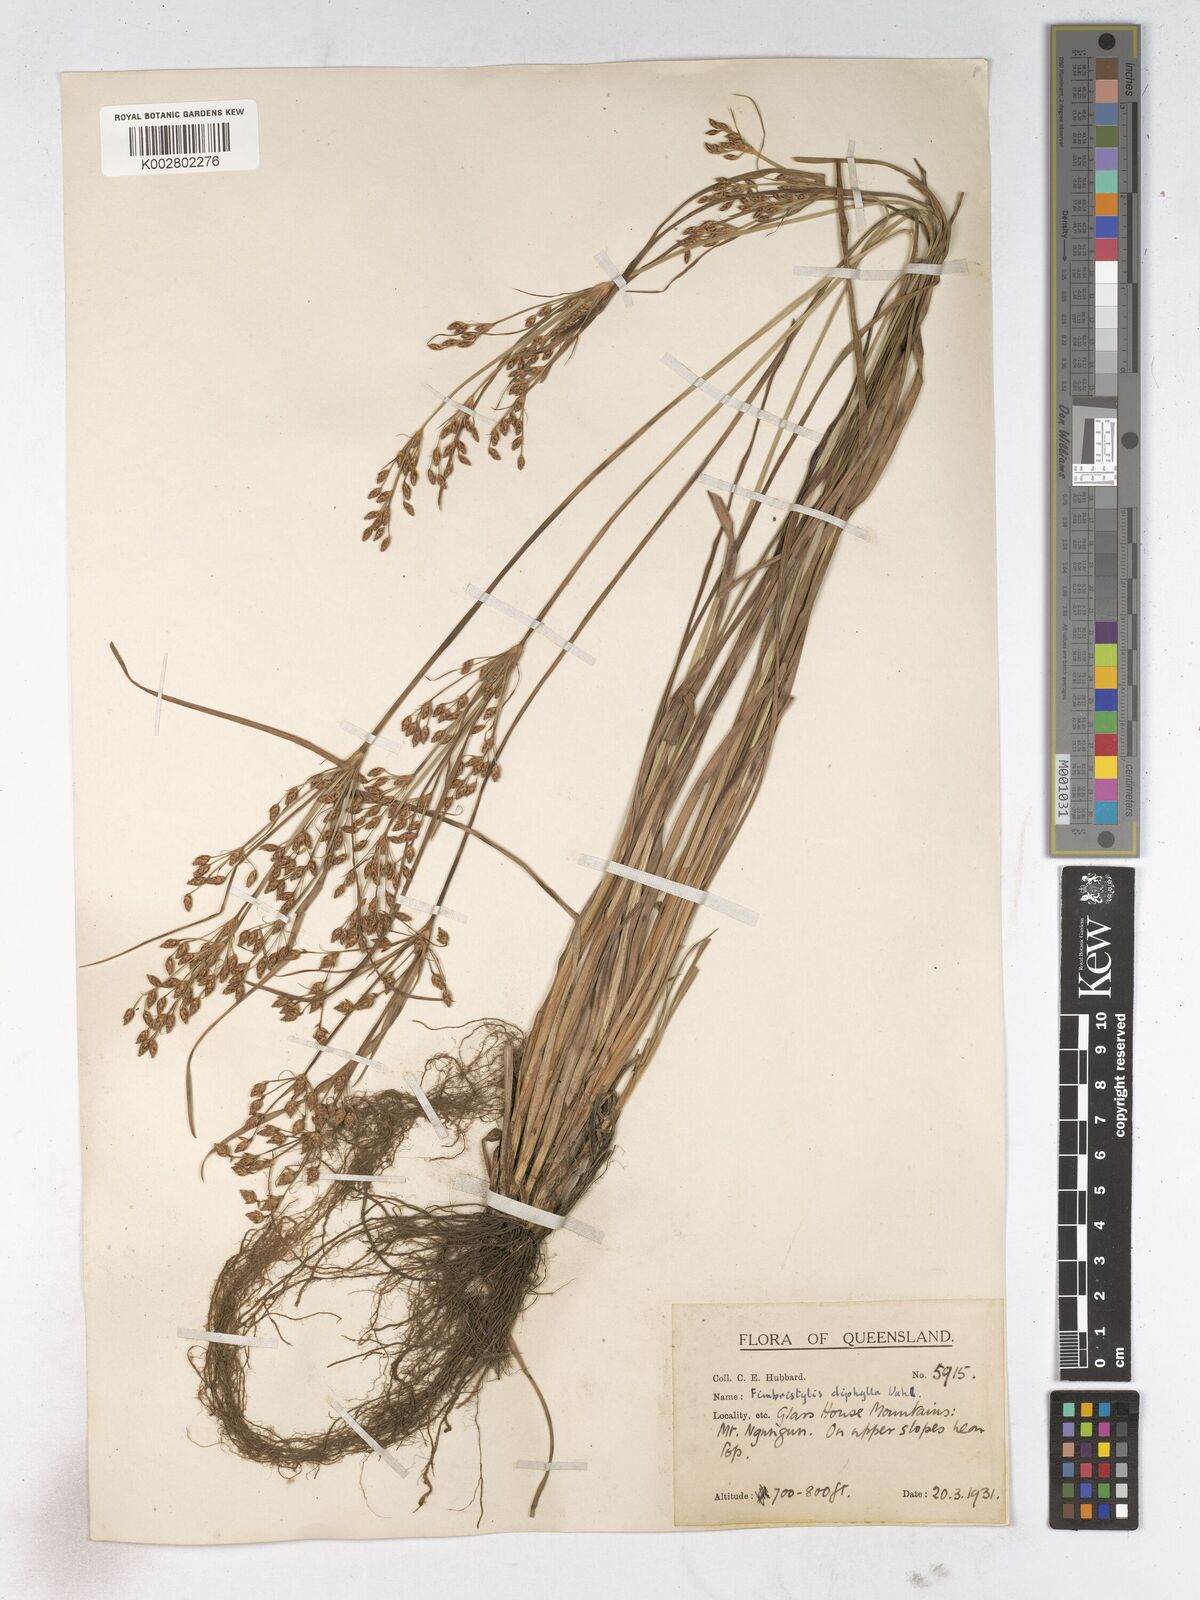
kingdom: Plantae
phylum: Tracheophyta
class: Liliopsida
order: Poales
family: Cyperaceae
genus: Fimbristylis
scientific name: Fimbristylis dichotoma
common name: Forked fimbry
